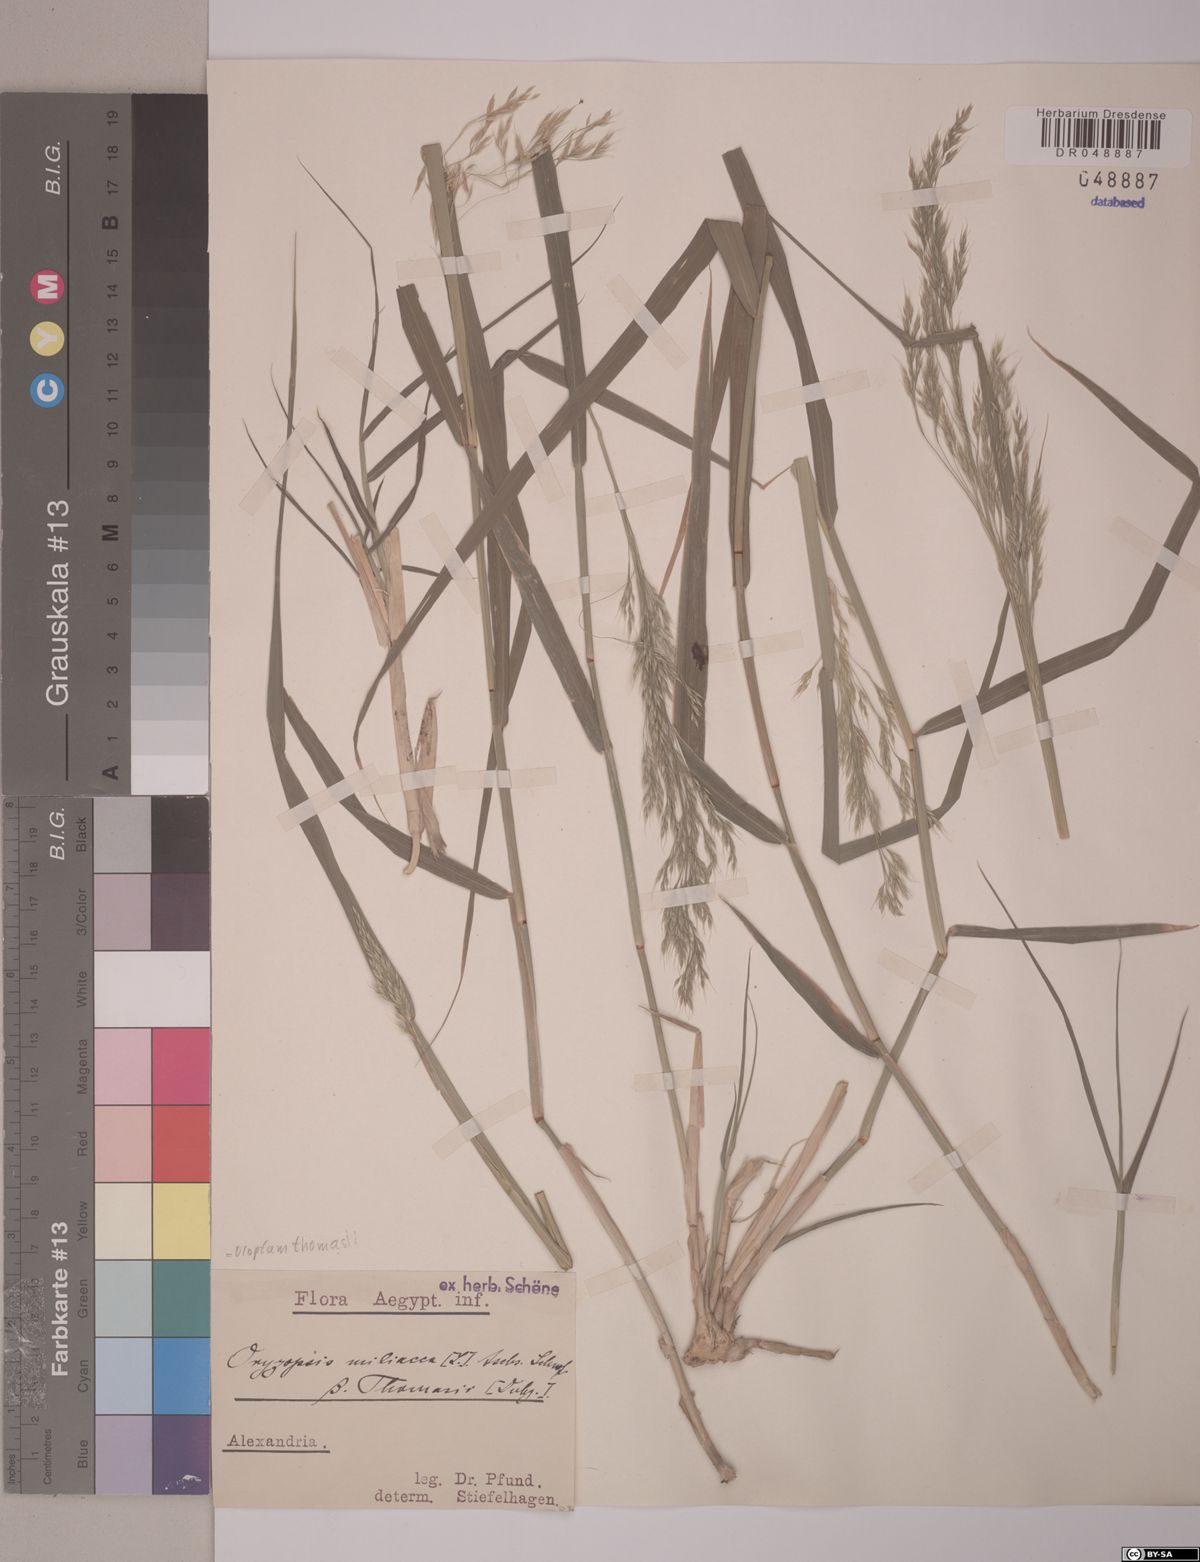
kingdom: Plantae
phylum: Tracheophyta
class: Liliopsida
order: Poales
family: Poaceae
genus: Oloptum
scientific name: Oloptum miliaceum
